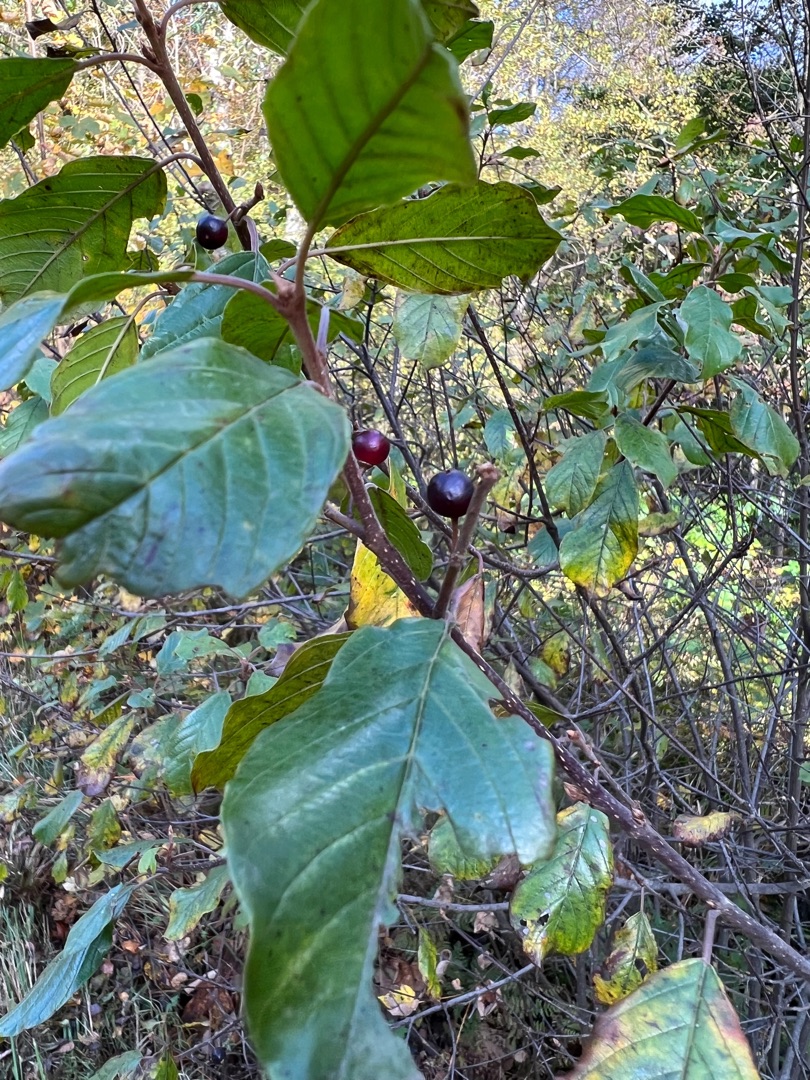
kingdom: Plantae
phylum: Tracheophyta
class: Magnoliopsida
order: Rosales
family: Rhamnaceae
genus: Frangula
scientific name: Frangula alnus
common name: Tørst
